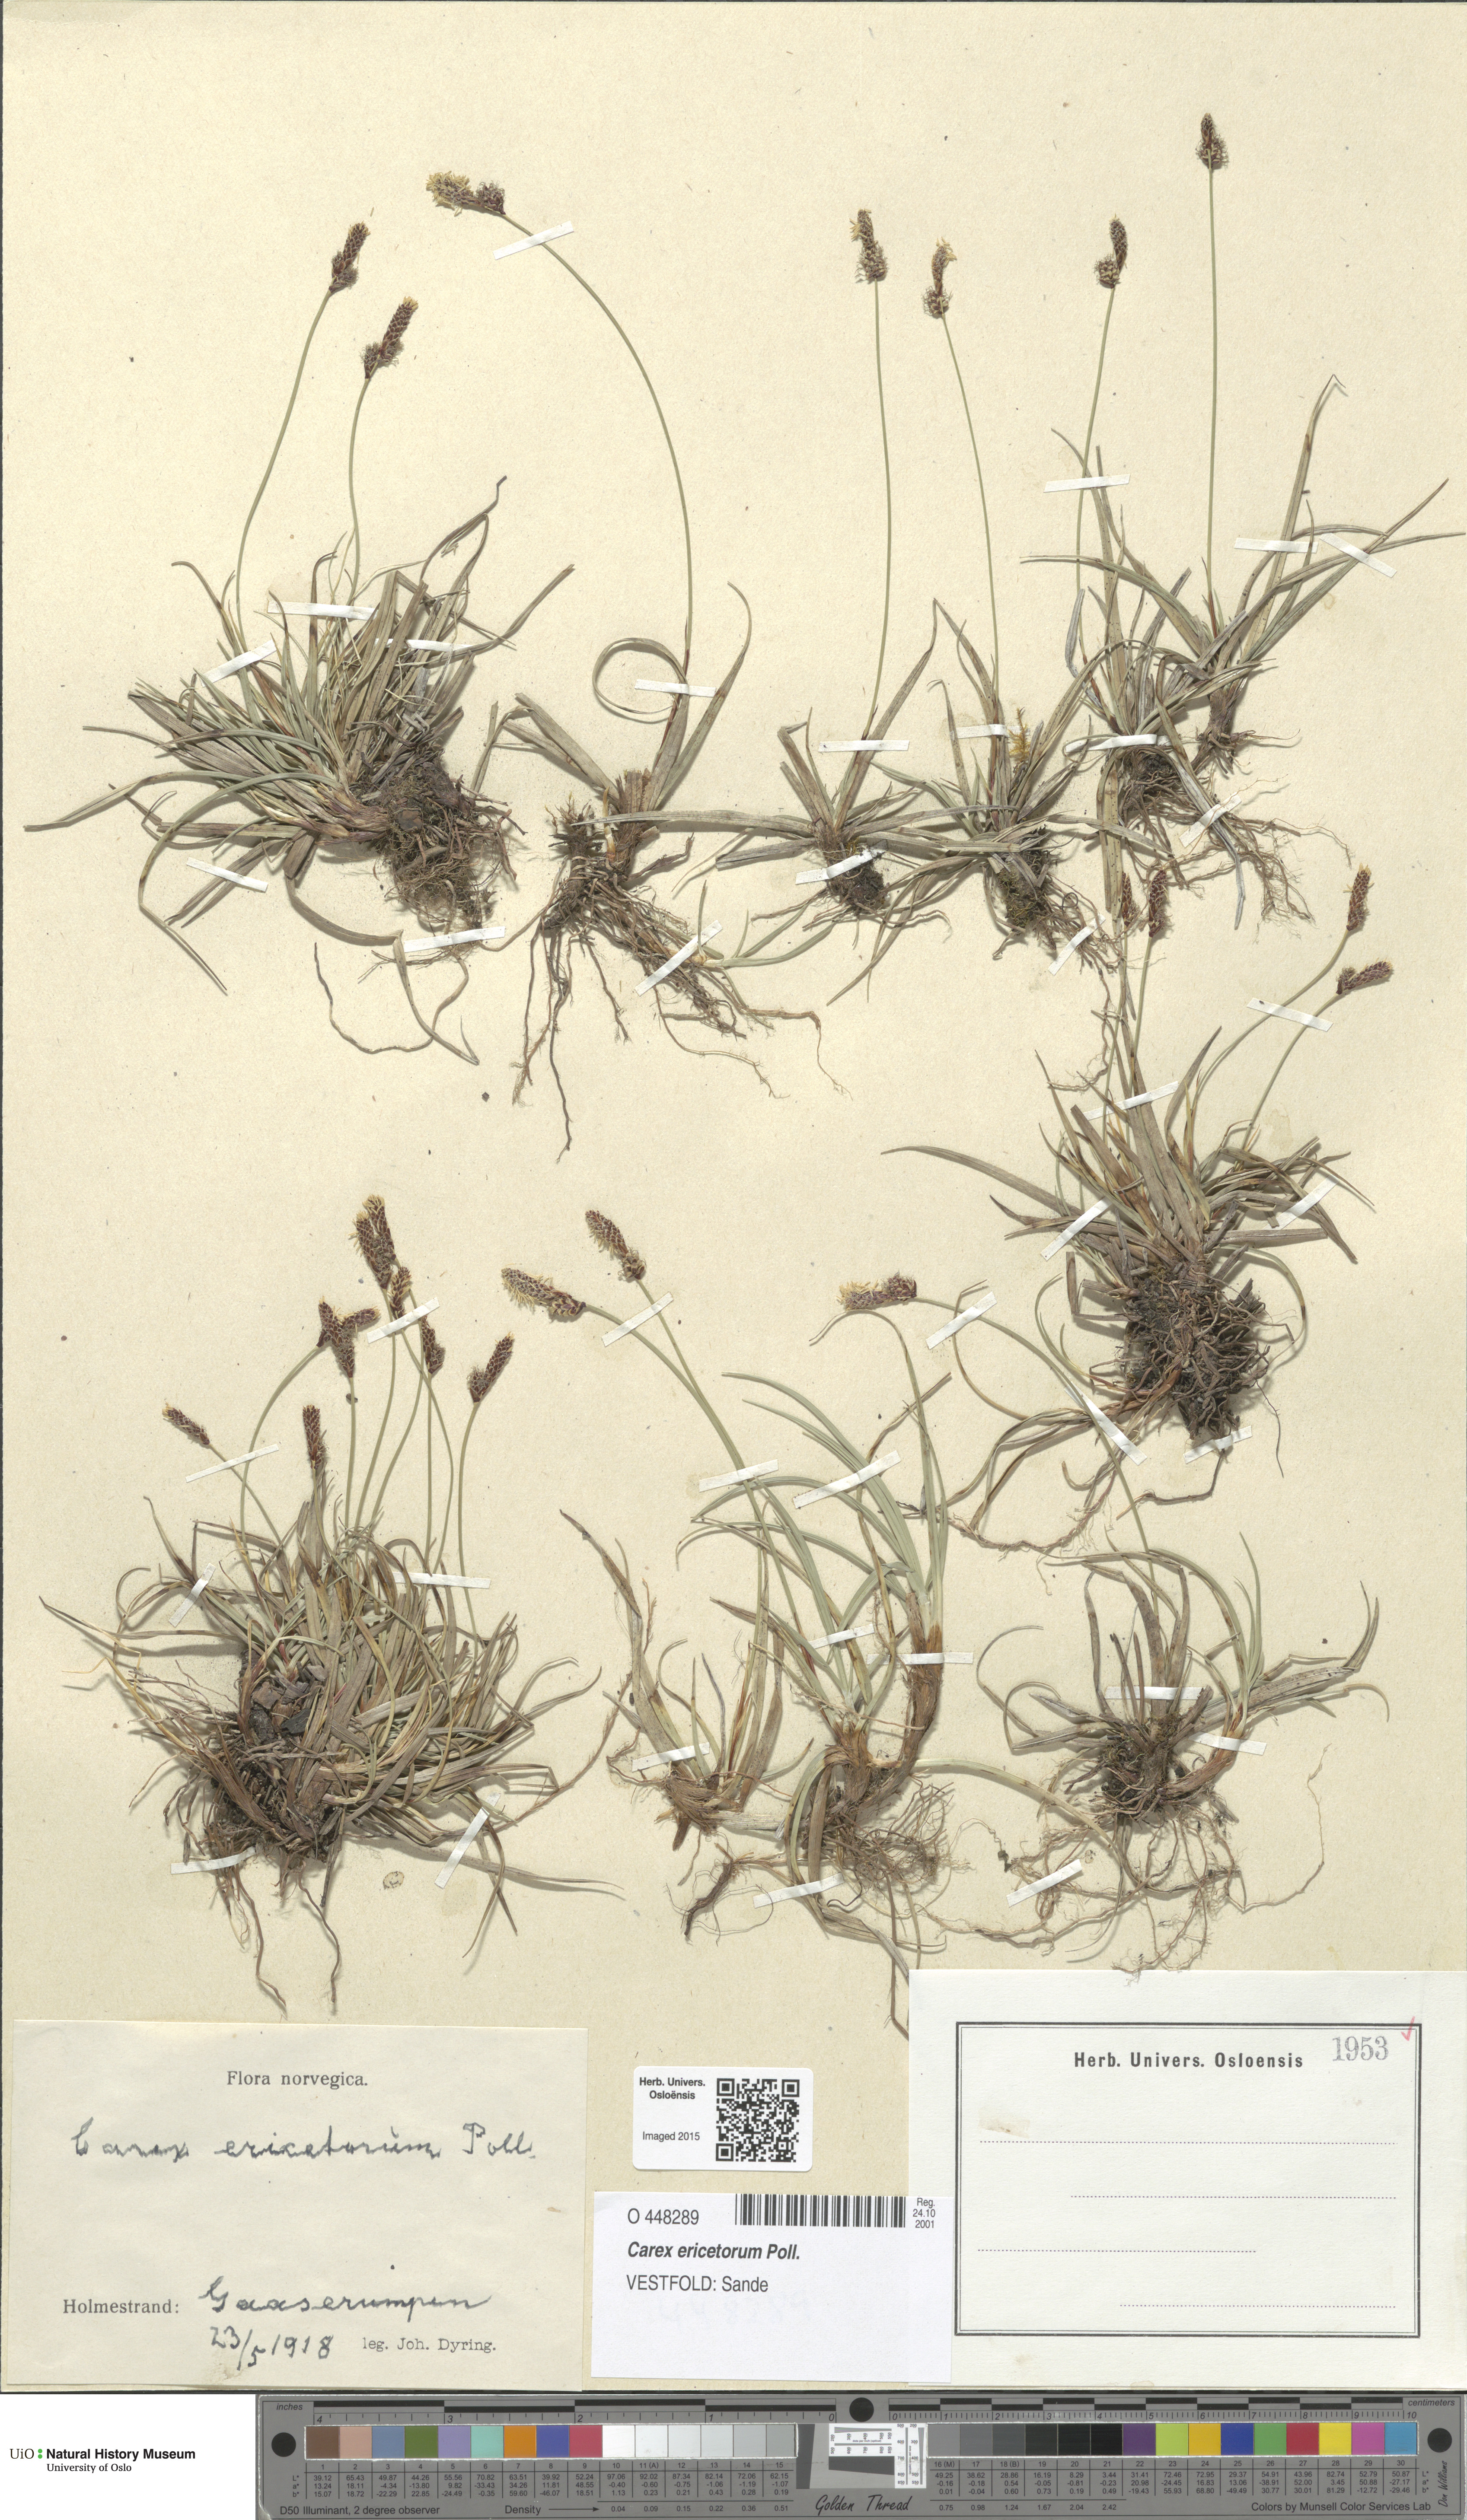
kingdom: Plantae
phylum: Tracheophyta
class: Liliopsida
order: Poales
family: Cyperaceae
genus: Carex
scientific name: Carex ericetorum
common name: Rare spring-sedge
